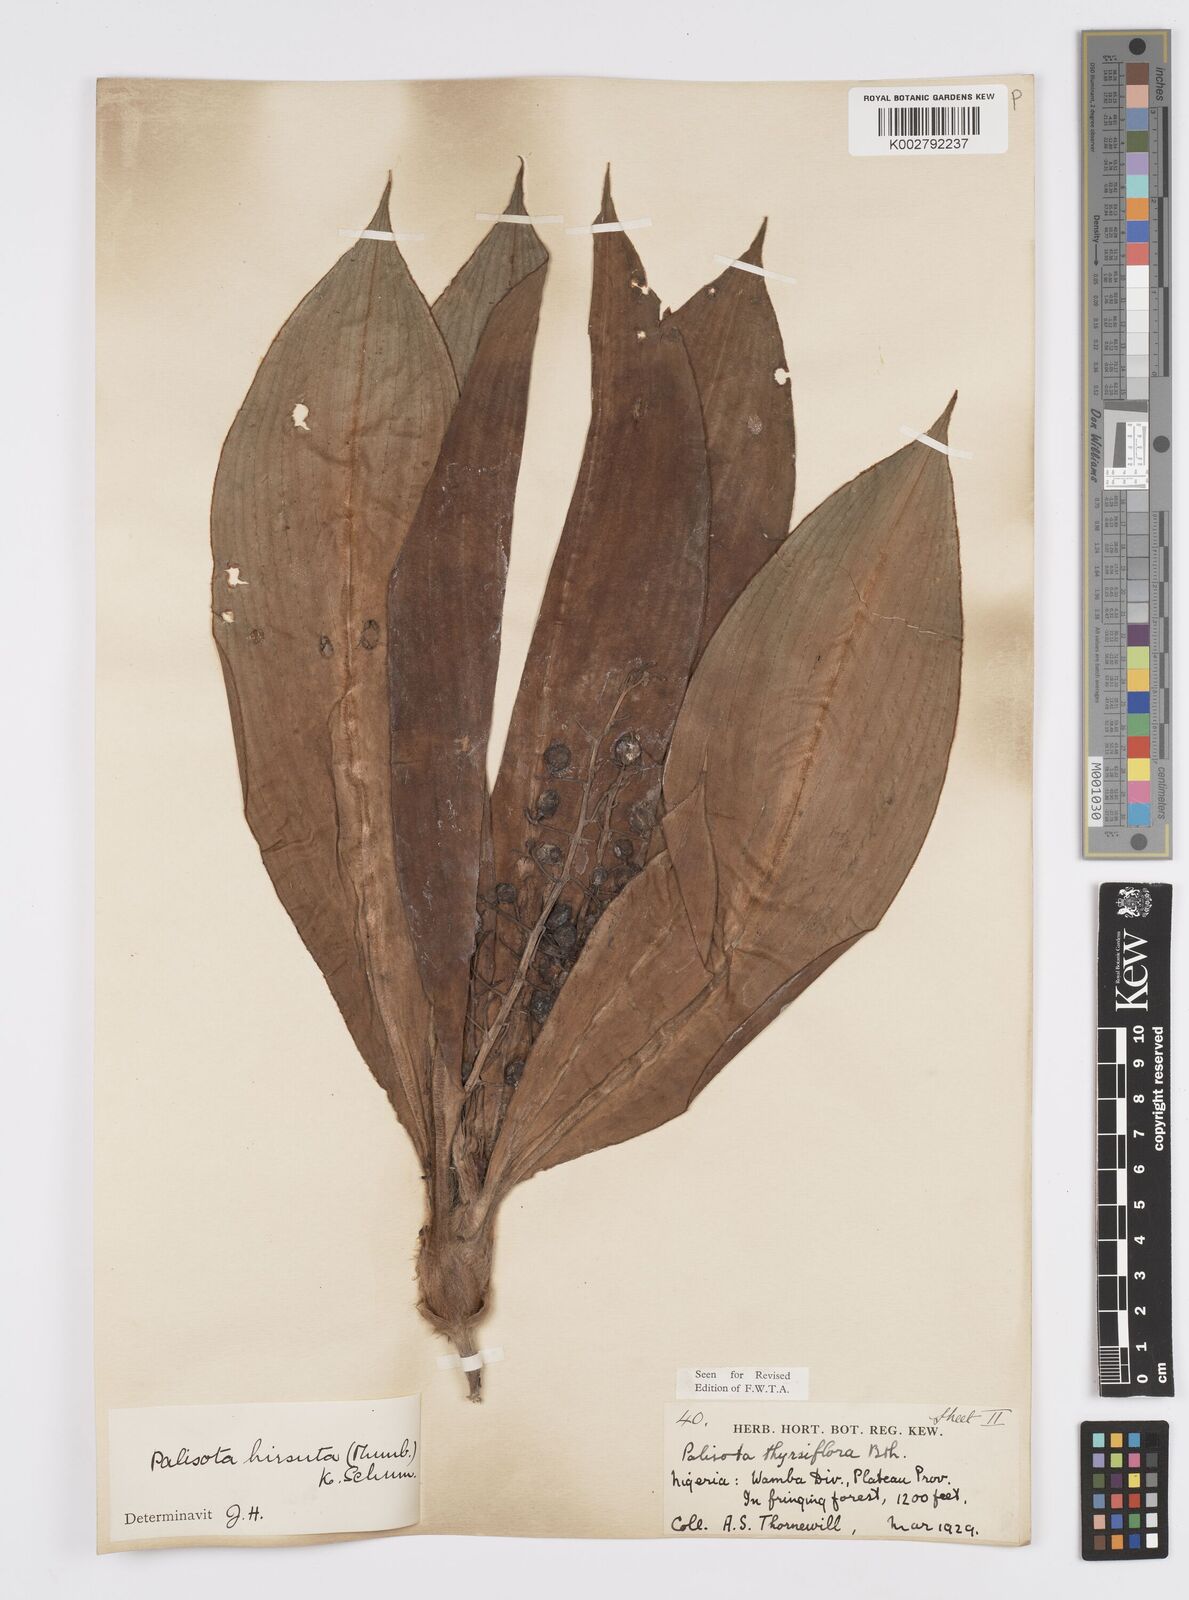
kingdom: Plantae
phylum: Tracheophyta
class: Liliopsida
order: Commelinales
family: Commelinaceae
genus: Palisota
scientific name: Palisota hirsuta
